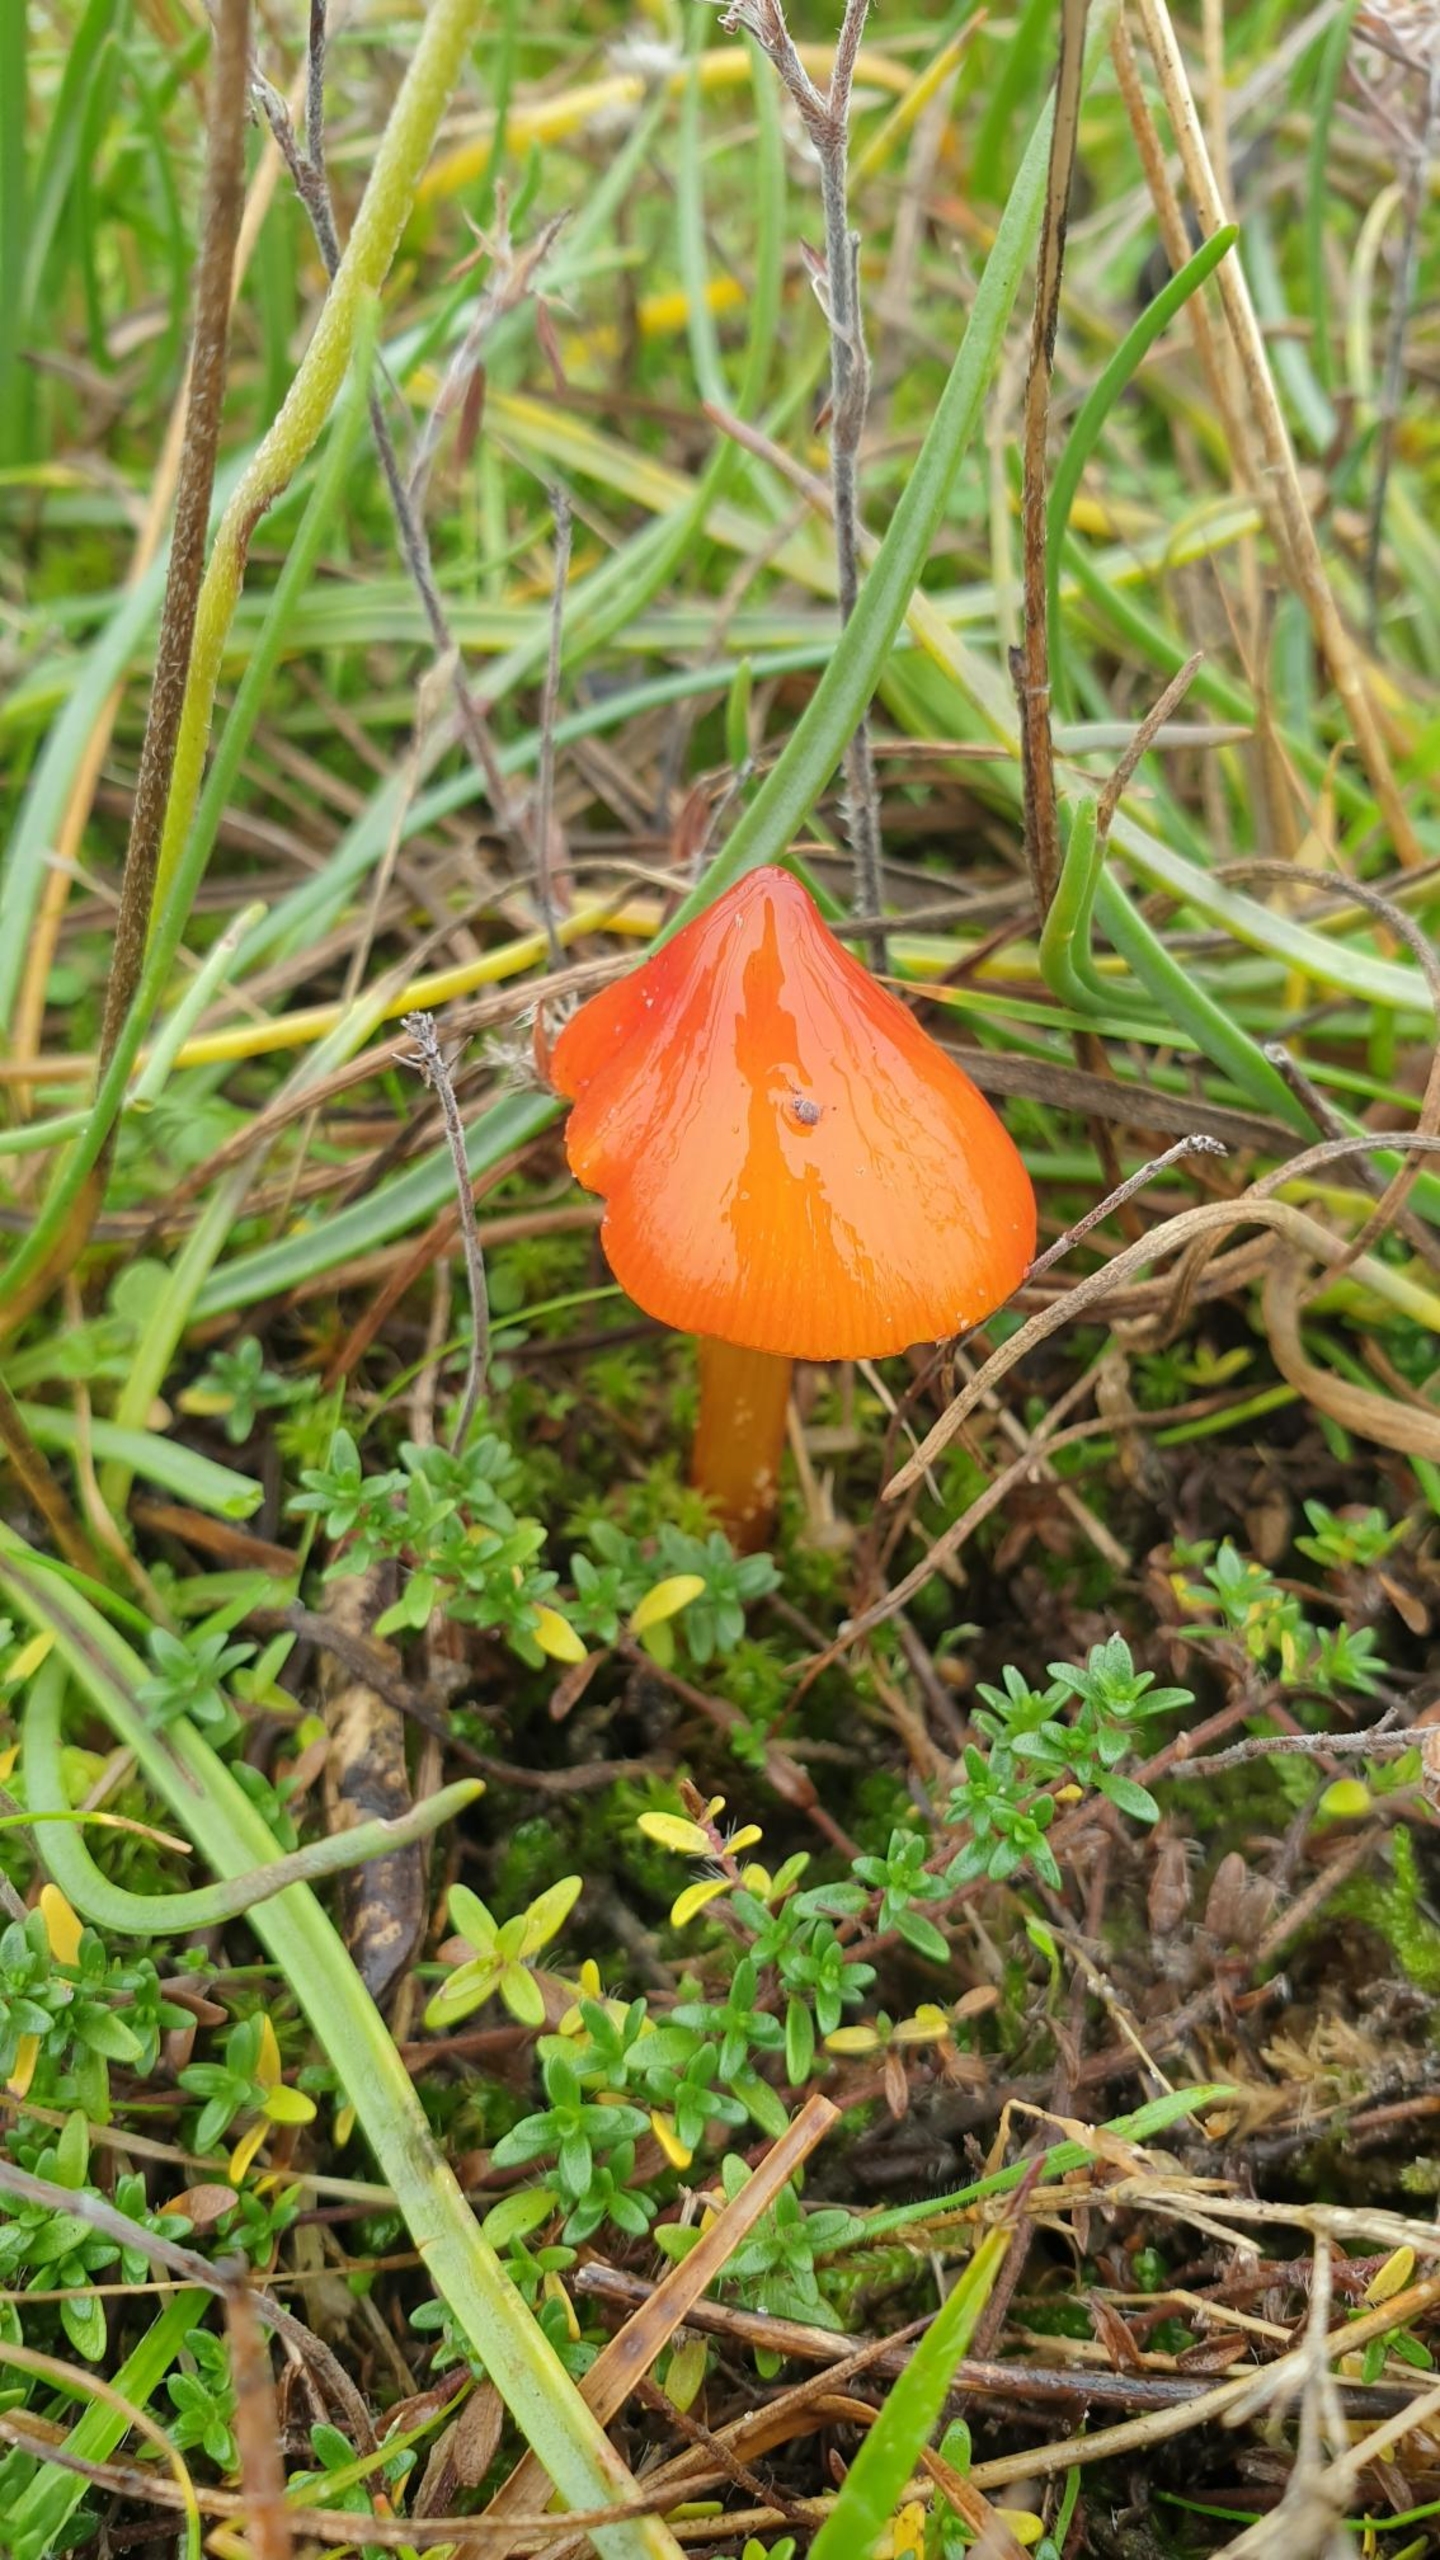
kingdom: Fungi
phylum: Basidiomycota
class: Agaricomycetes
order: Agaricales
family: Hygrophoraceae
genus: Hygrocybe
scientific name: Hygrocybe conica
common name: Kegle-vokshat
